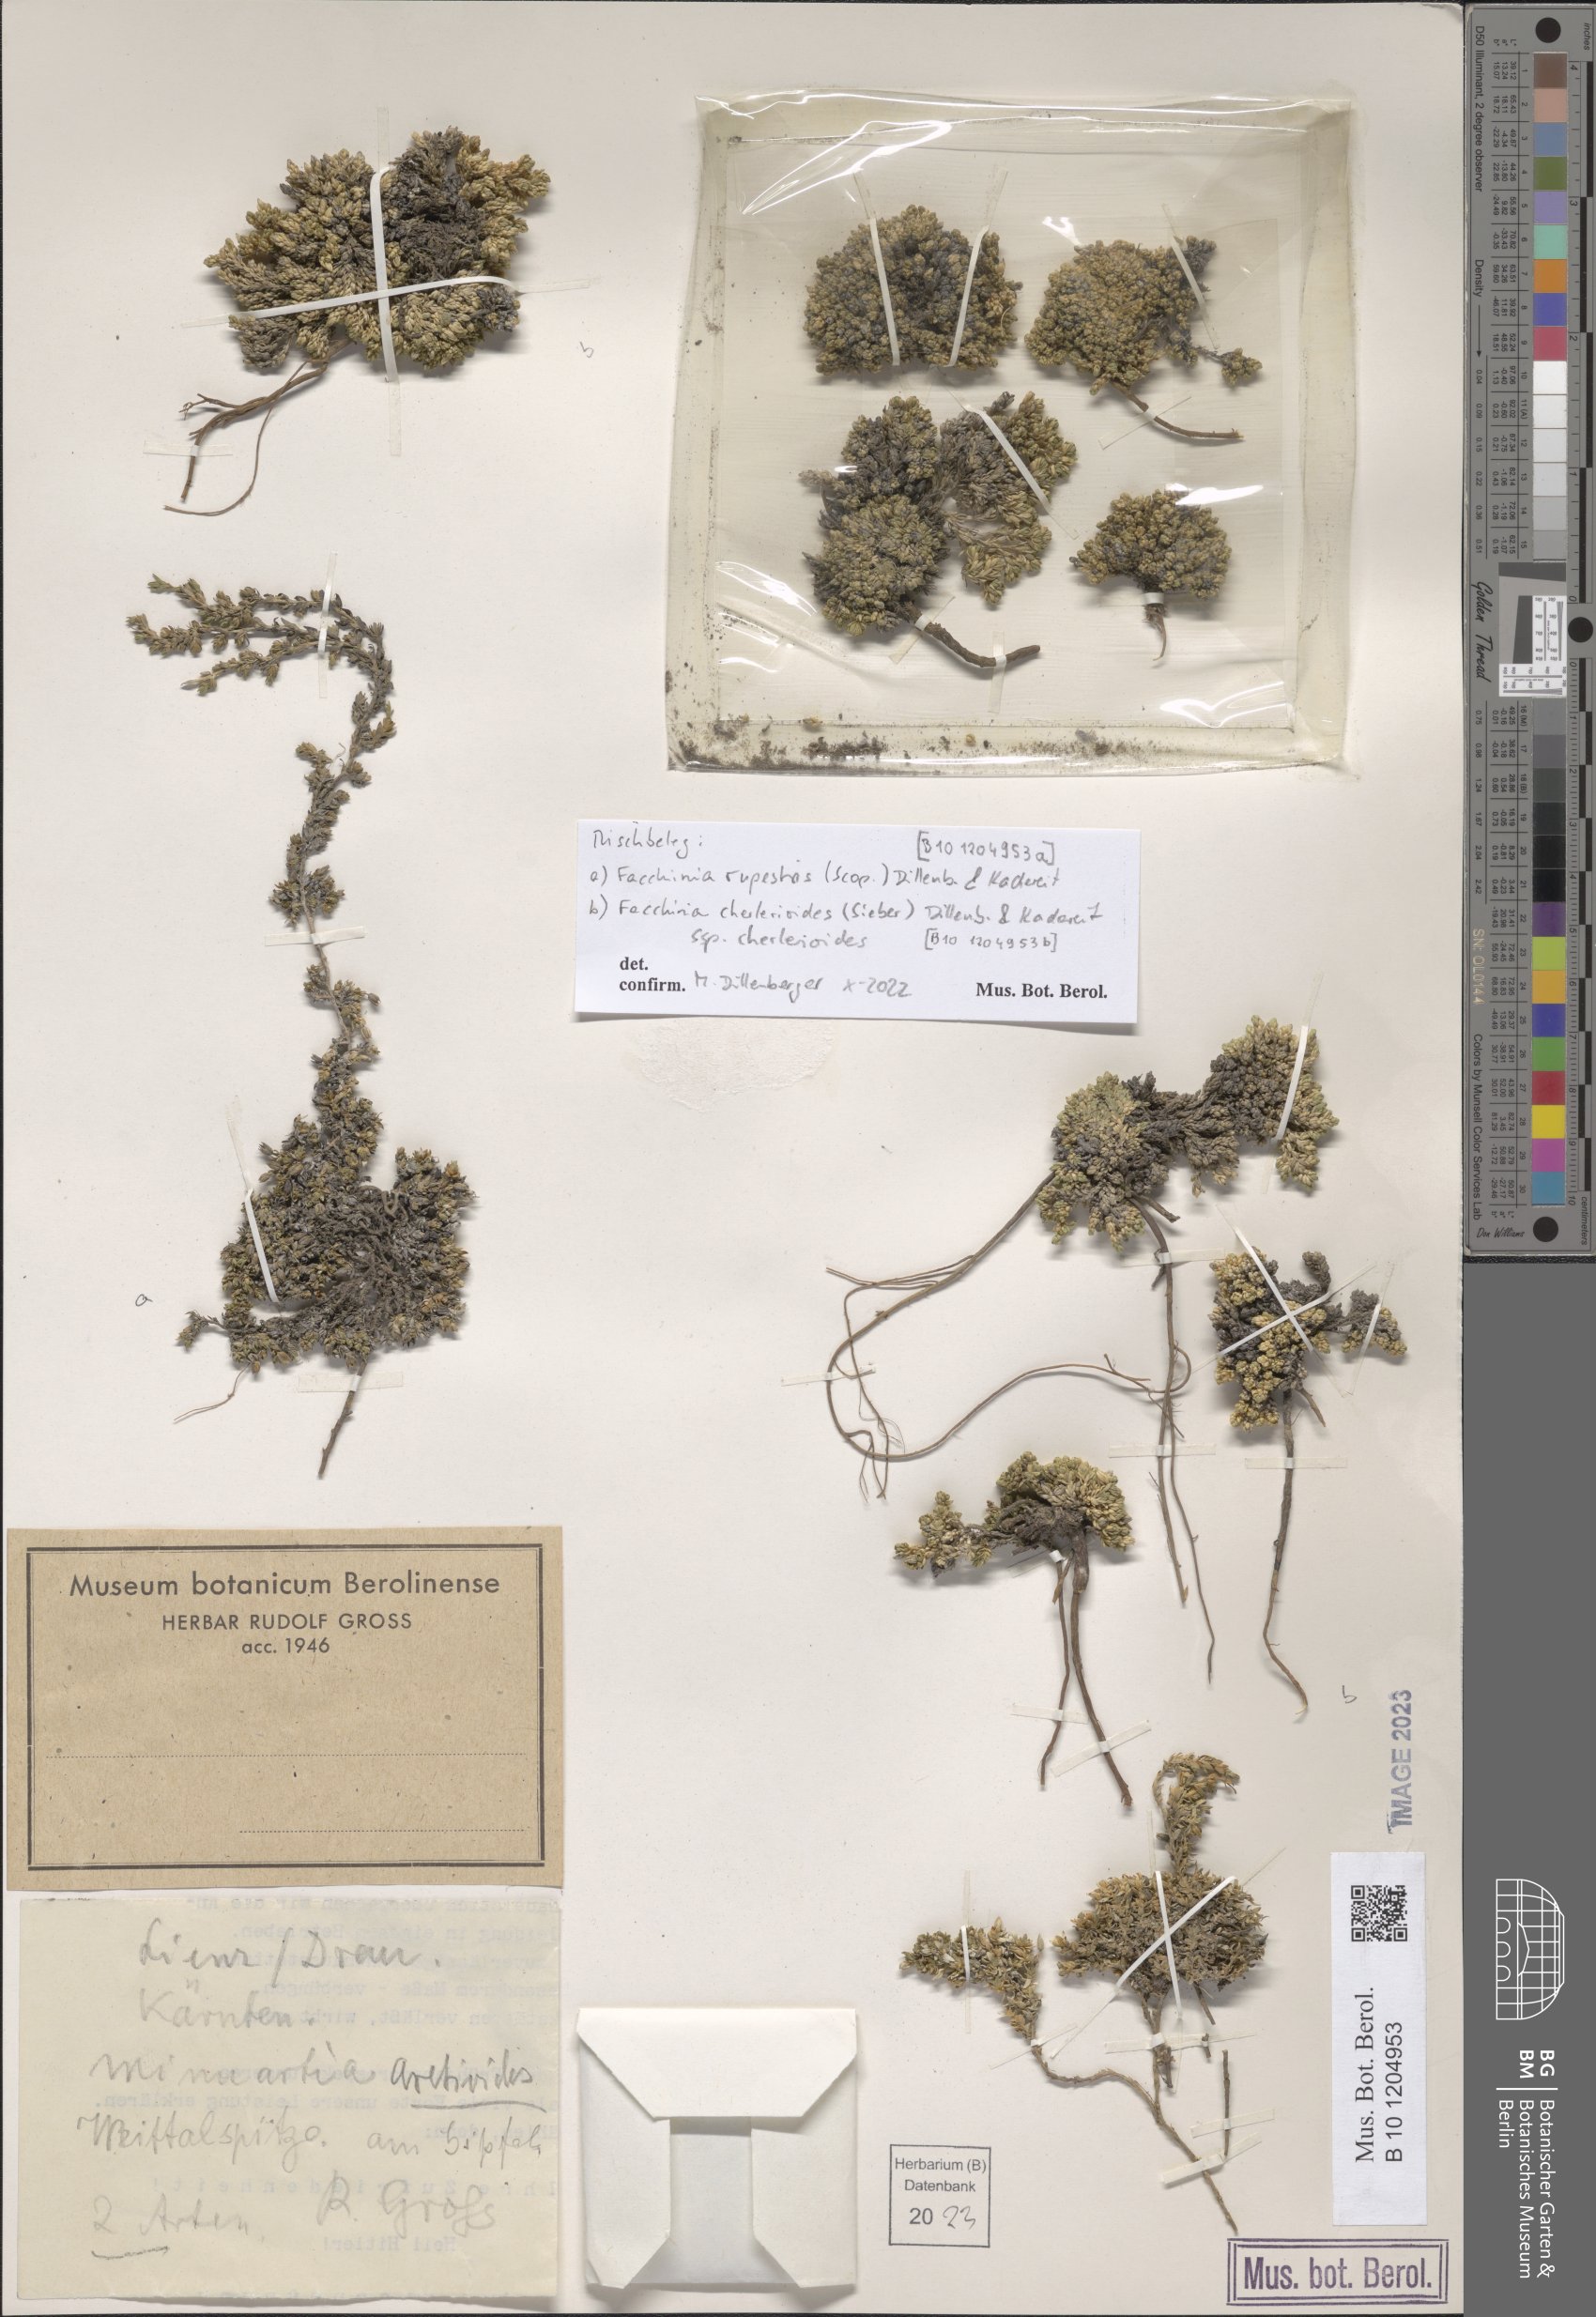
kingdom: Plantae
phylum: Tracheophyta
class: Magnoliopsida
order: Caryophyllales
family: Caryophyllaceae
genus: Facchinia
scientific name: Facchinia rupestris
